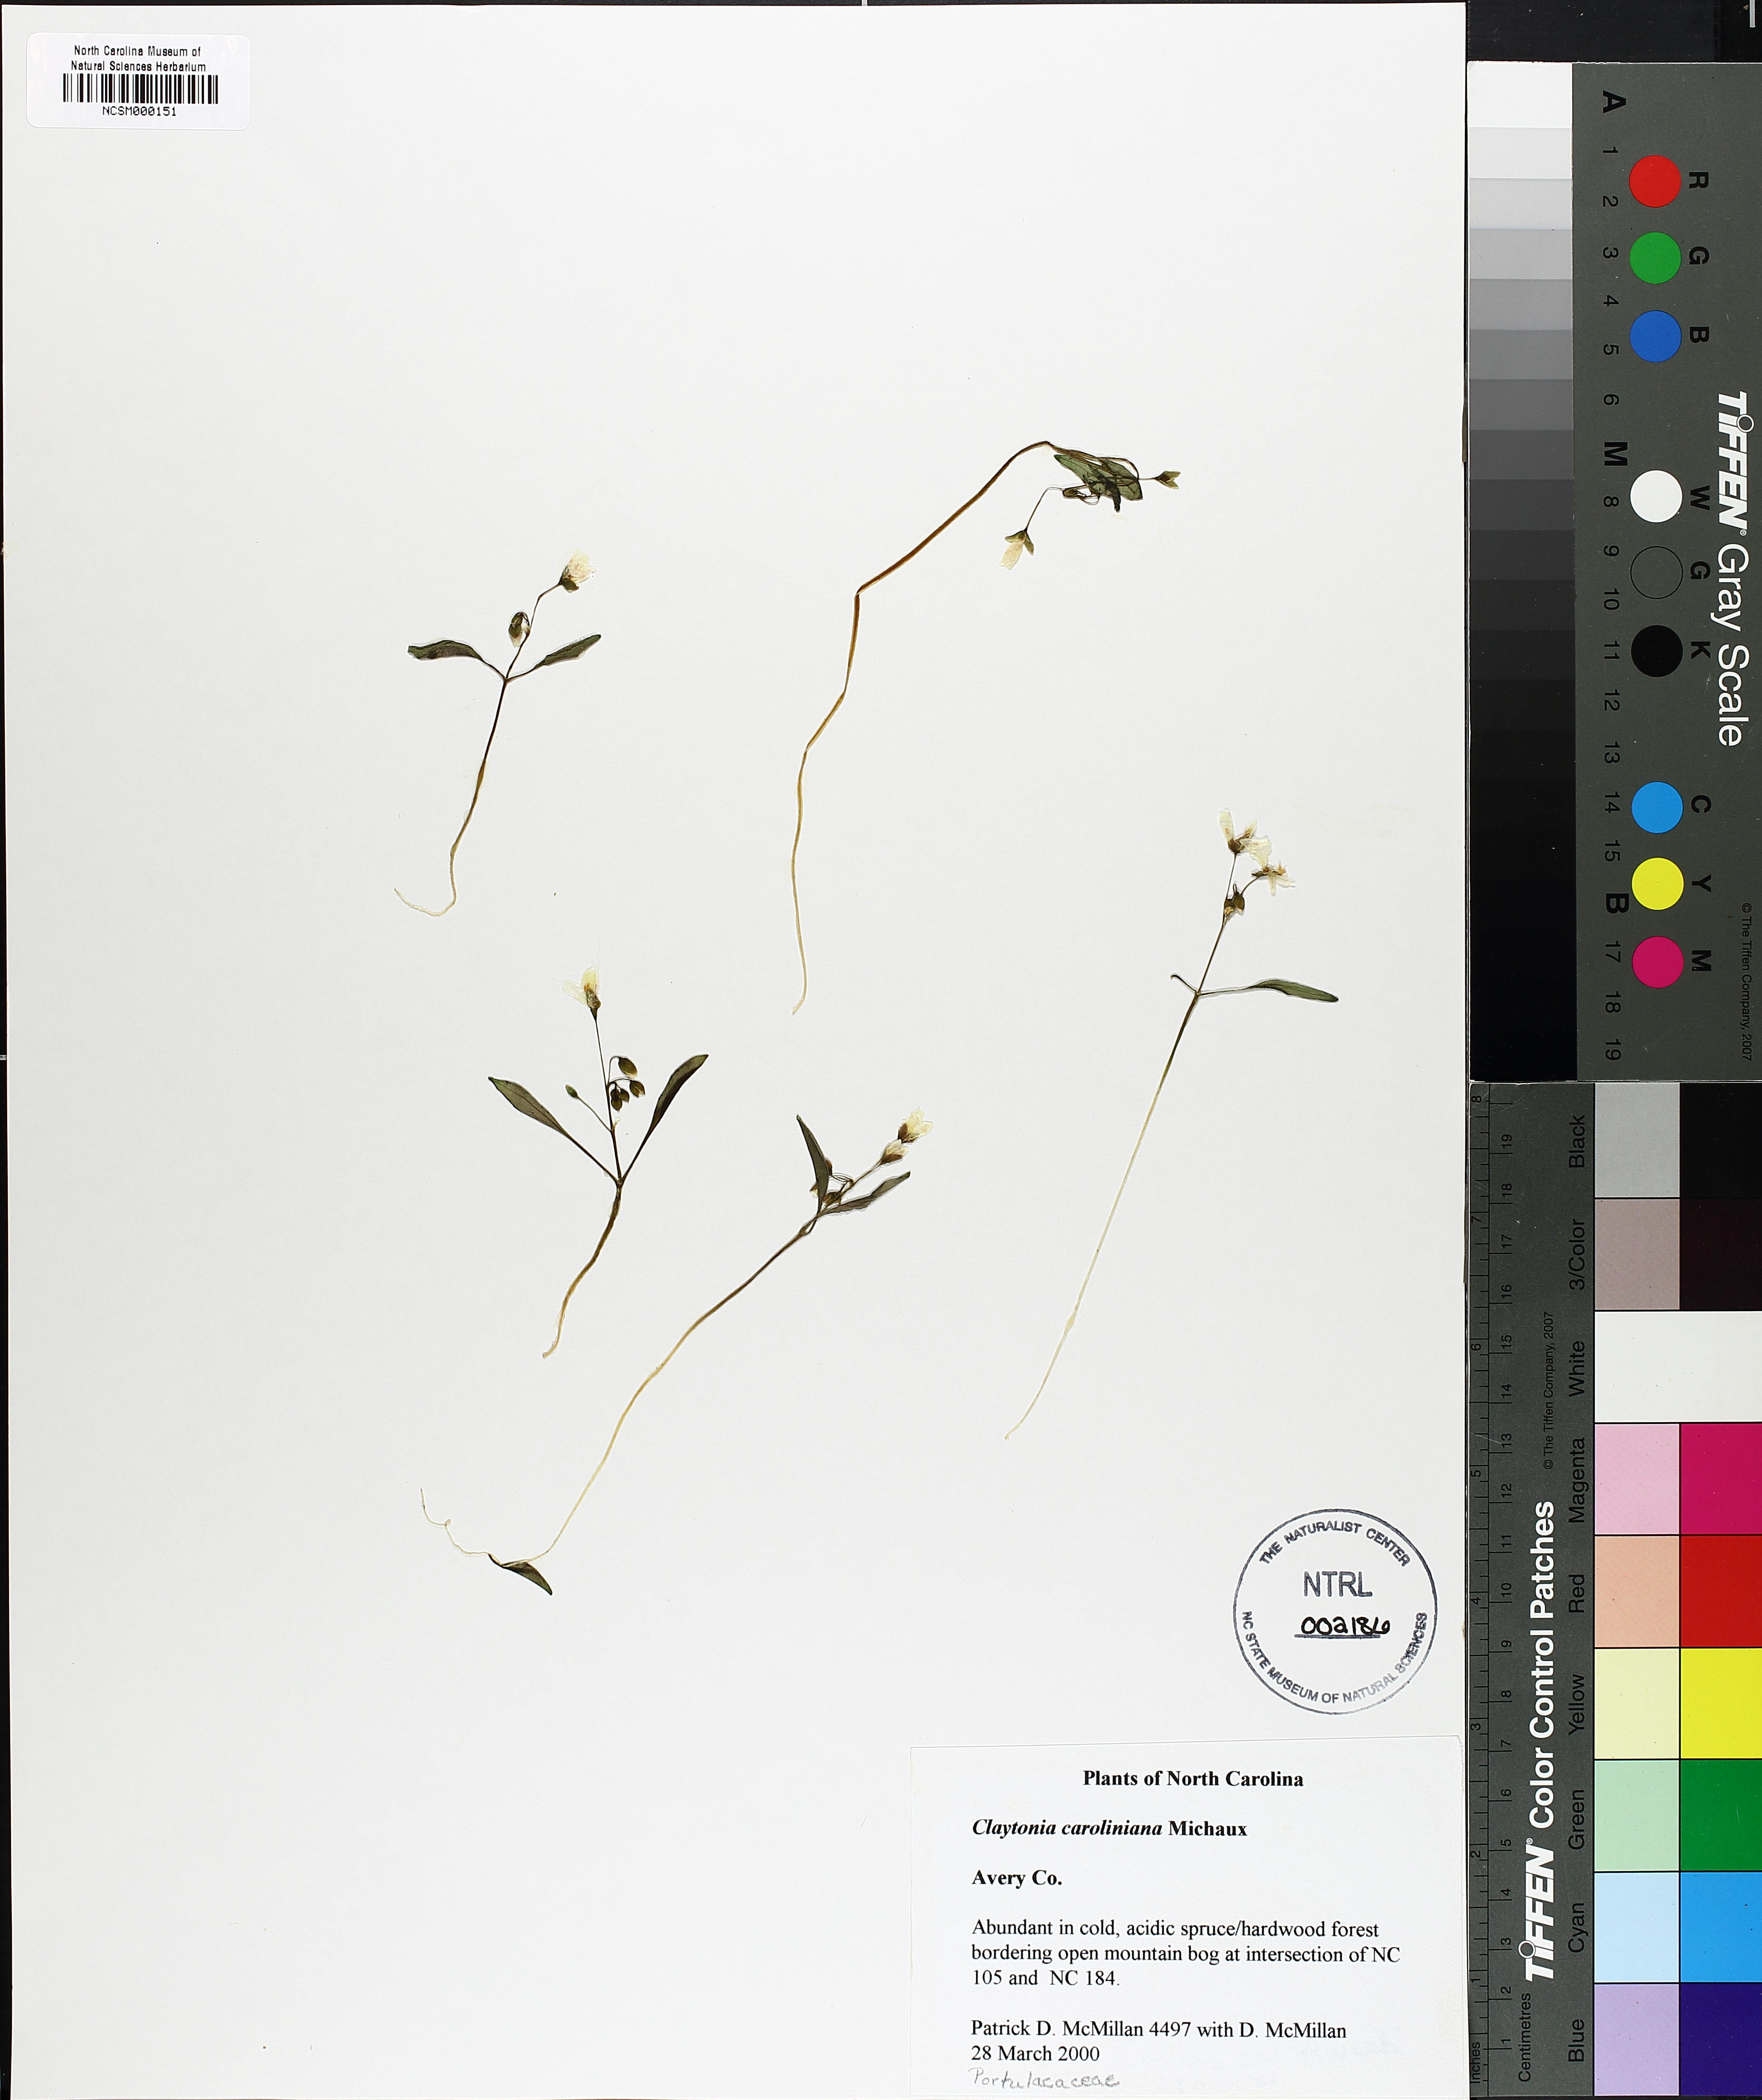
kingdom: Plantae
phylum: Tracheophyta
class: Magnoliopsida
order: Caryophyllales
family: Montiaceae
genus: Claytonia
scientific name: Claytonia caroliniana
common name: Carolina spring beauty
